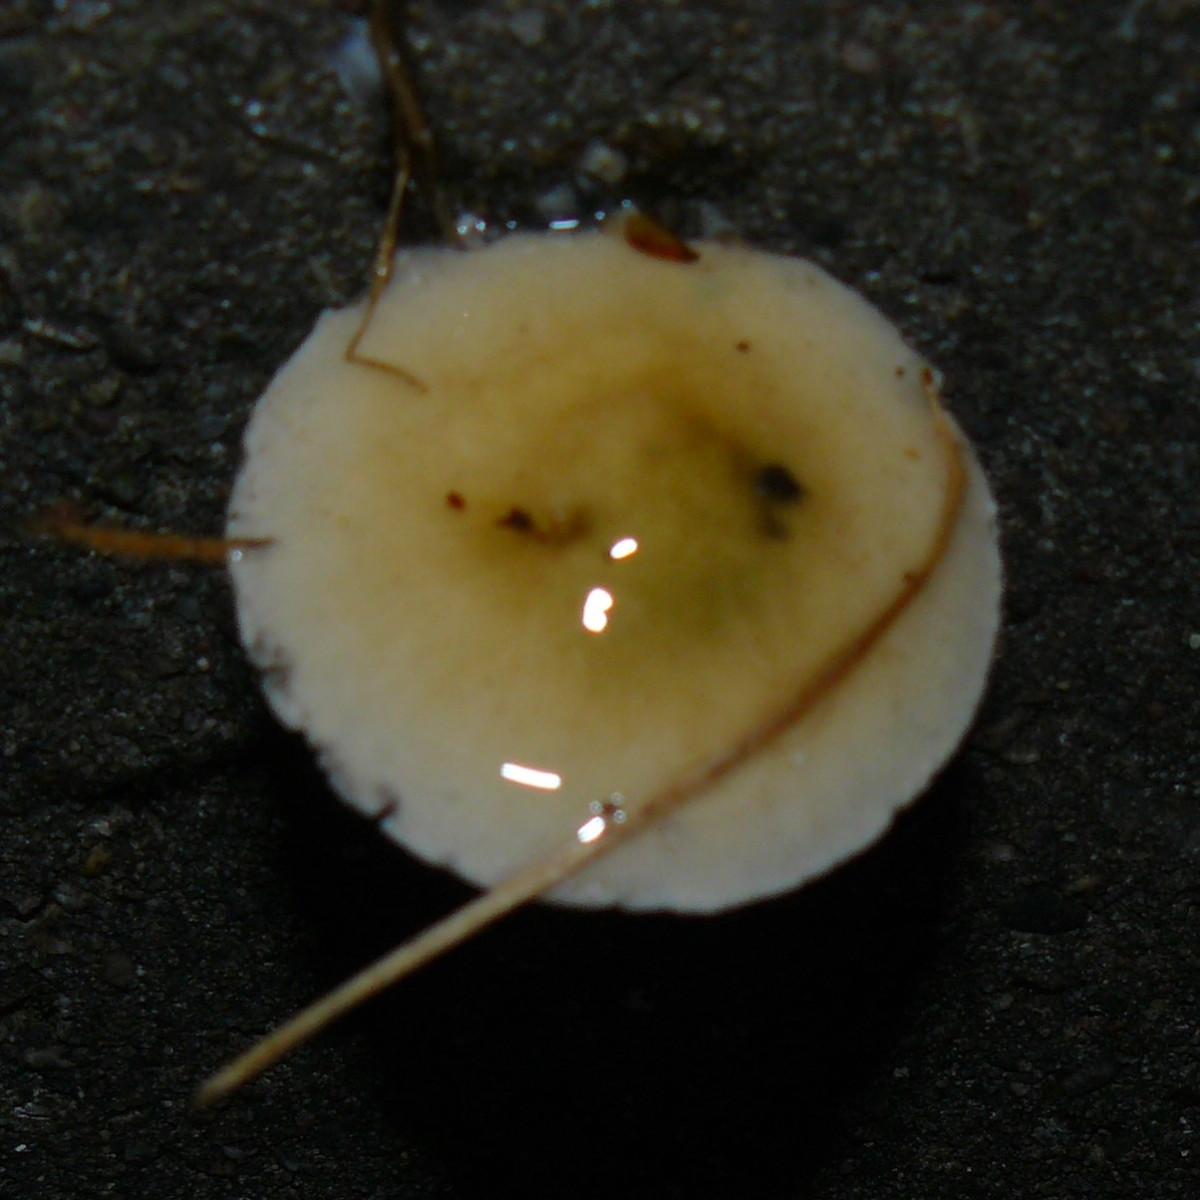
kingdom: Fungi
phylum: Basidiomycota
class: Agaricomycetes
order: Agaricales
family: Strophariaceae
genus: Stropharia
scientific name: Stropharia cyanea
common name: blågrøn bredblad
